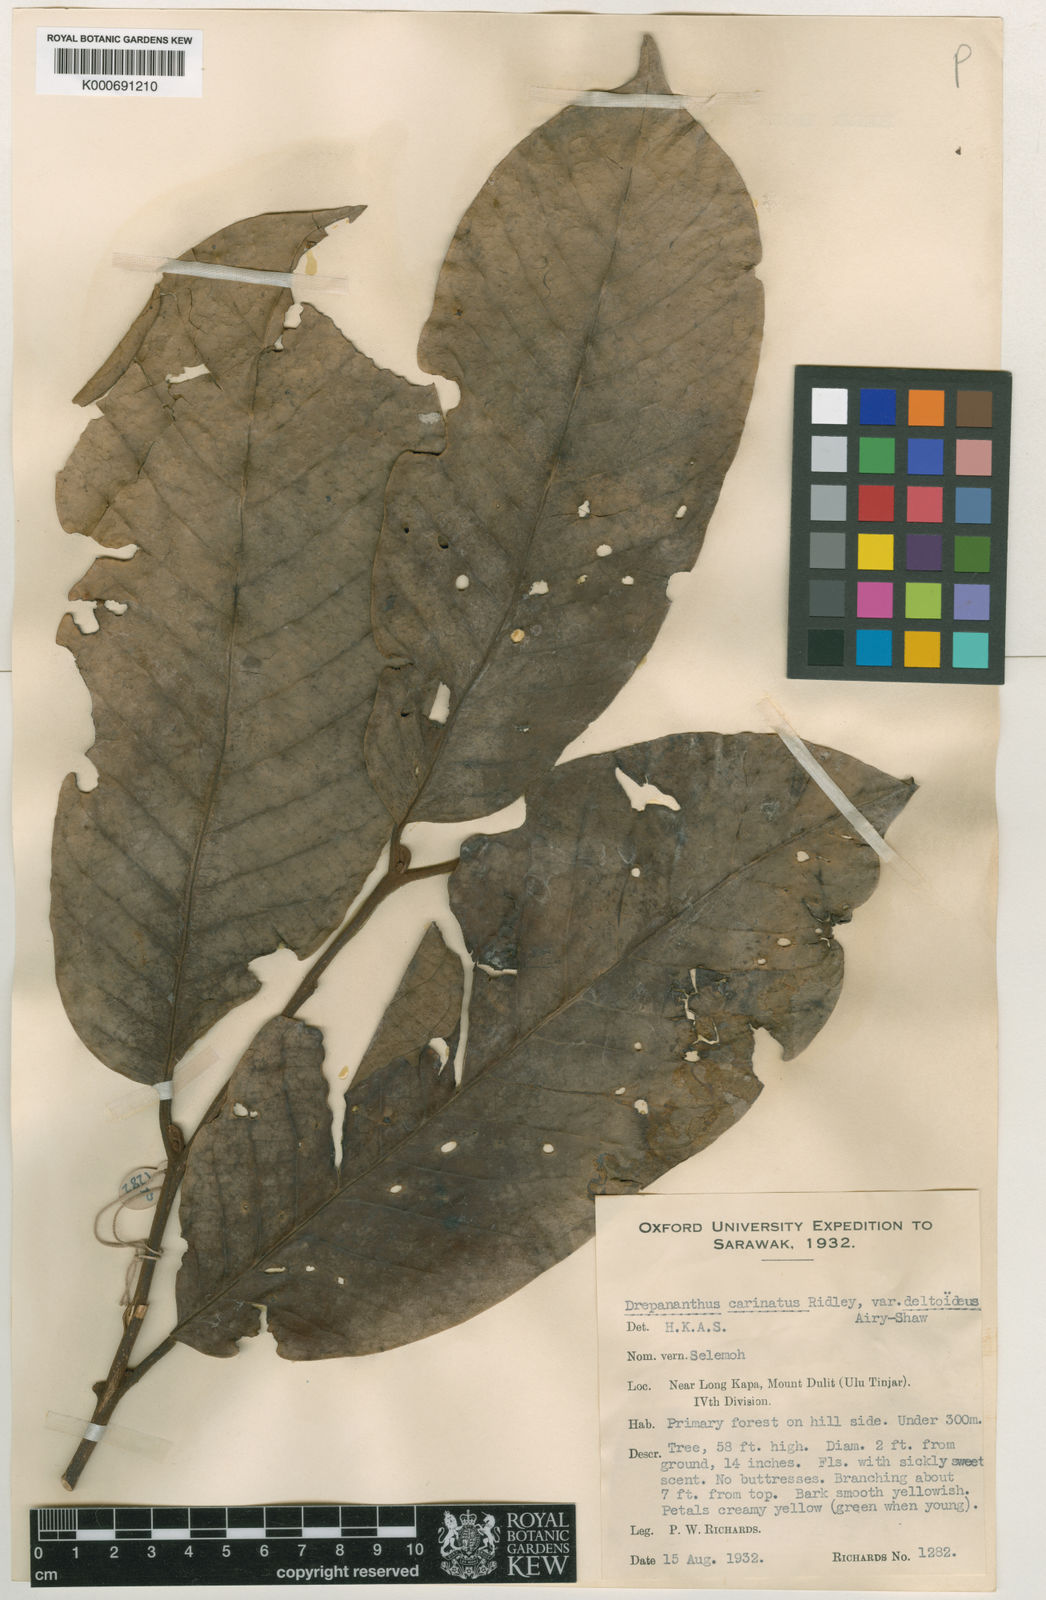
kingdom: Plantae
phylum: Tracheophyta
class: Magnoliopsida
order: Magnoliales
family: Annonaceae
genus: Drepananthus
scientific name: Drepananthus deltoideus
